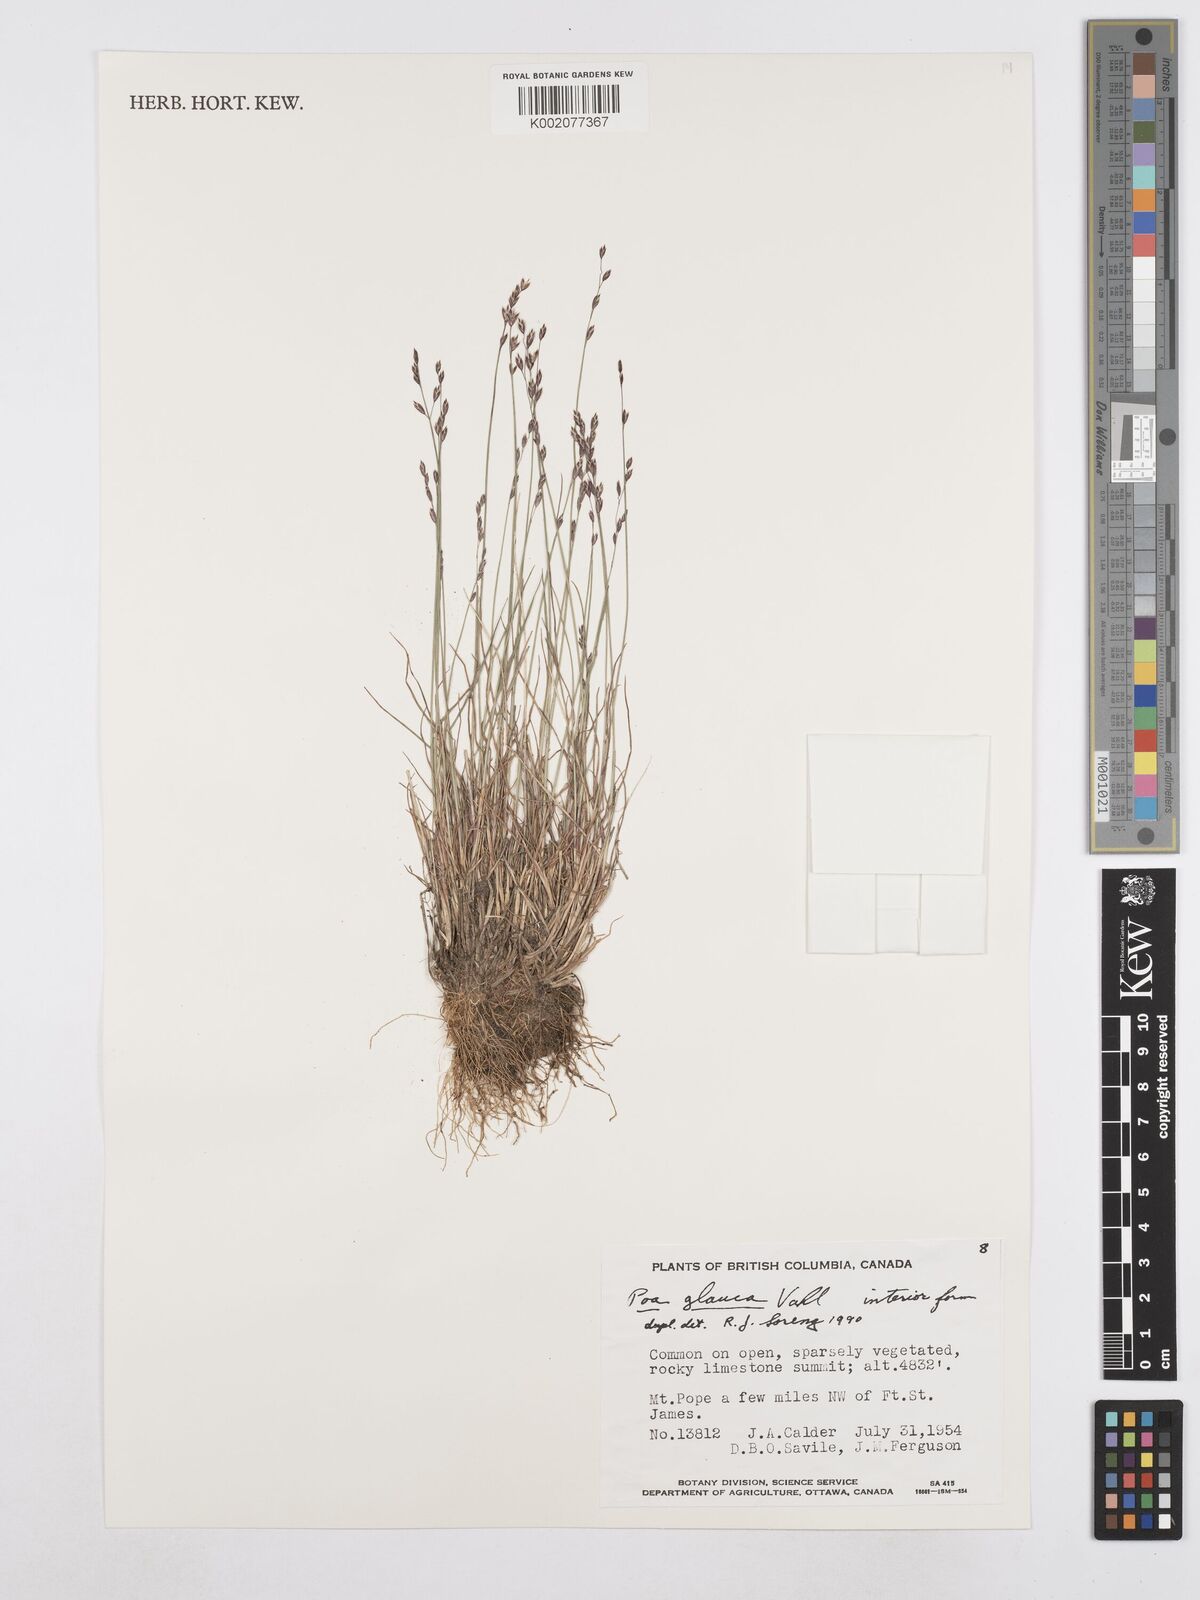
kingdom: Plantae
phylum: Tracheophyta
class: Liliopsida
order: Poales
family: Poaceae
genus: Poa
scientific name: Poa glauca
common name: Glaucous bluegrass
